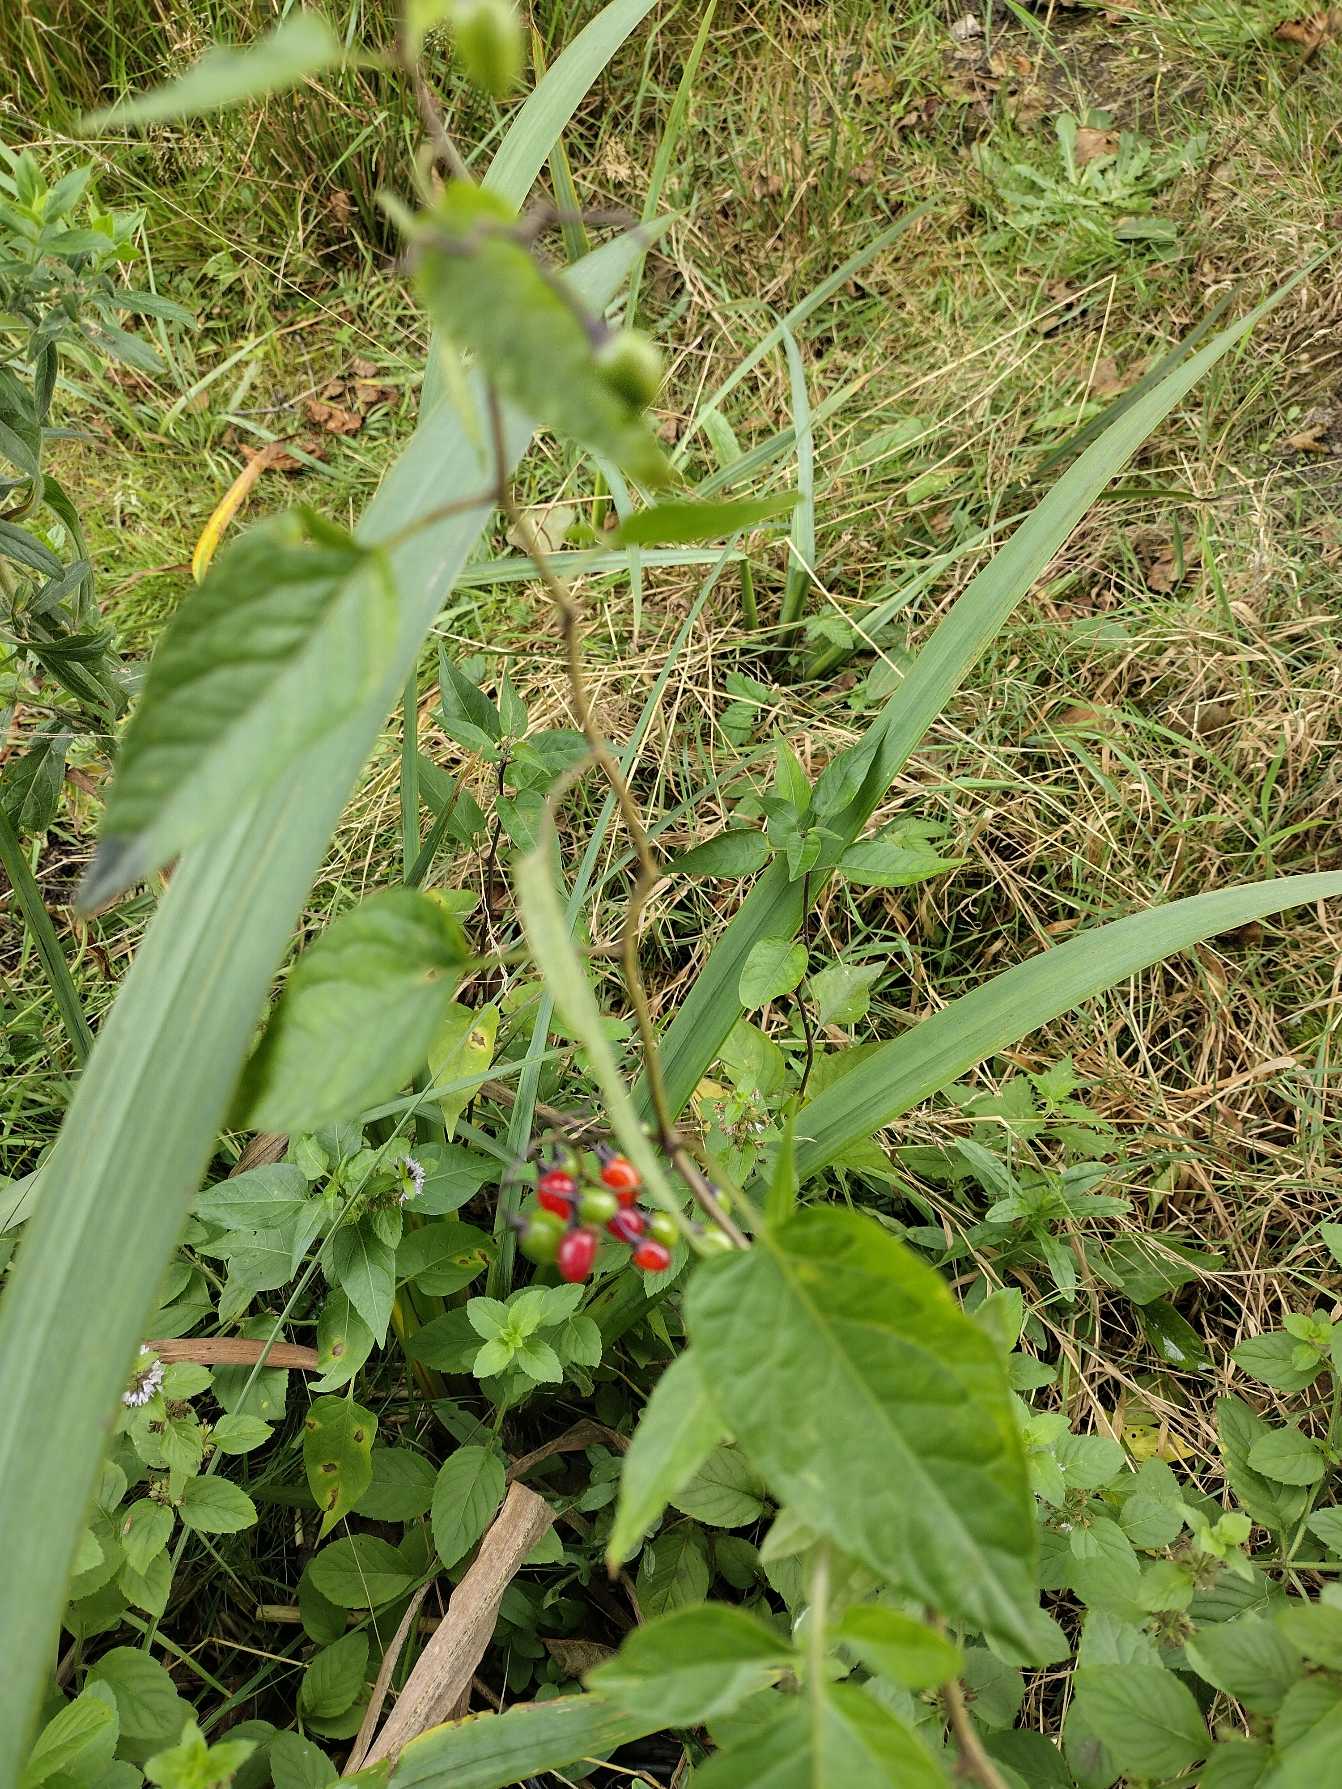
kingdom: Plantae
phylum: Tracheophyta
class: Magnoliopsida
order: Solanales
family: Solanaceae
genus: Solanum
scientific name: Solanum dulcamara
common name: Bittersød natskygge
